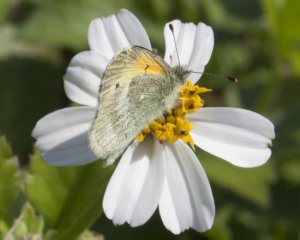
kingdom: Animalia
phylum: Arthropoda
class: Insecta
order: Lepidoptera
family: Pieridae
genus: Nathalis
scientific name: Nathalis iole
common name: Dainty Sulphur
